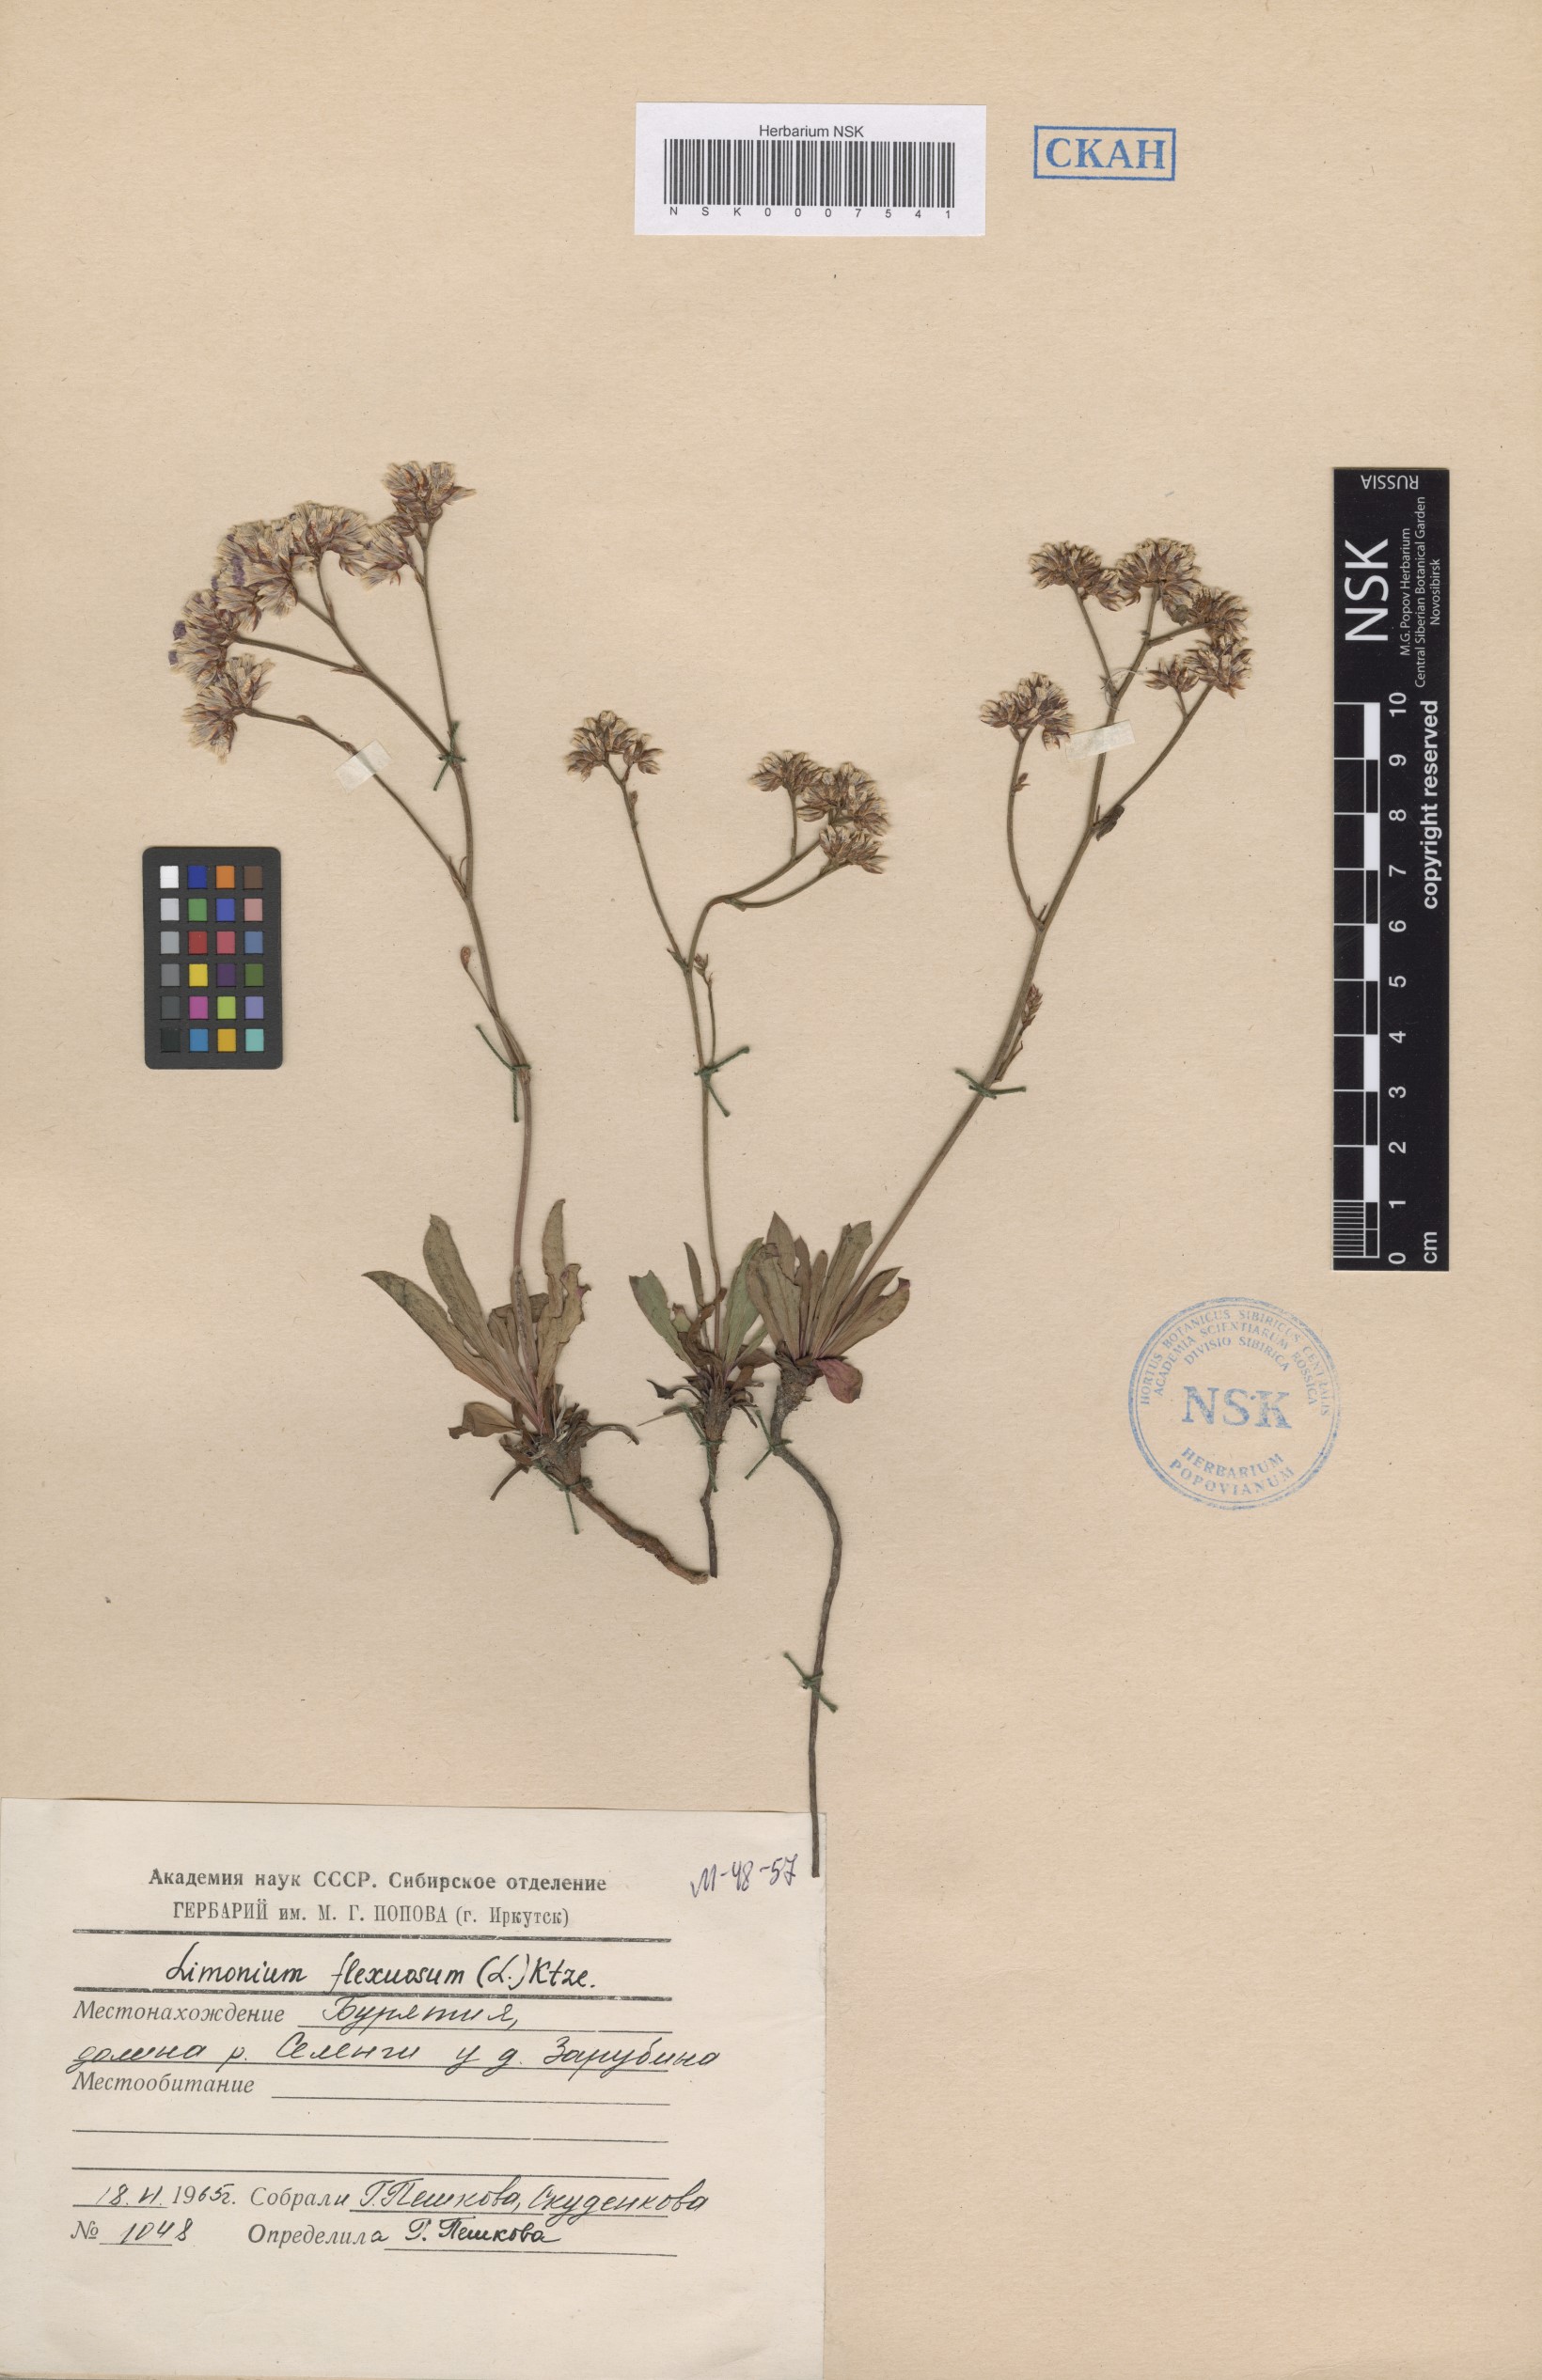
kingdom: Plantae
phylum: Tracheophyta
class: Magnoliopsida
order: Caryophyllales
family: Plumbaginaceae
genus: Limonium
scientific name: Limonium flexuosum
